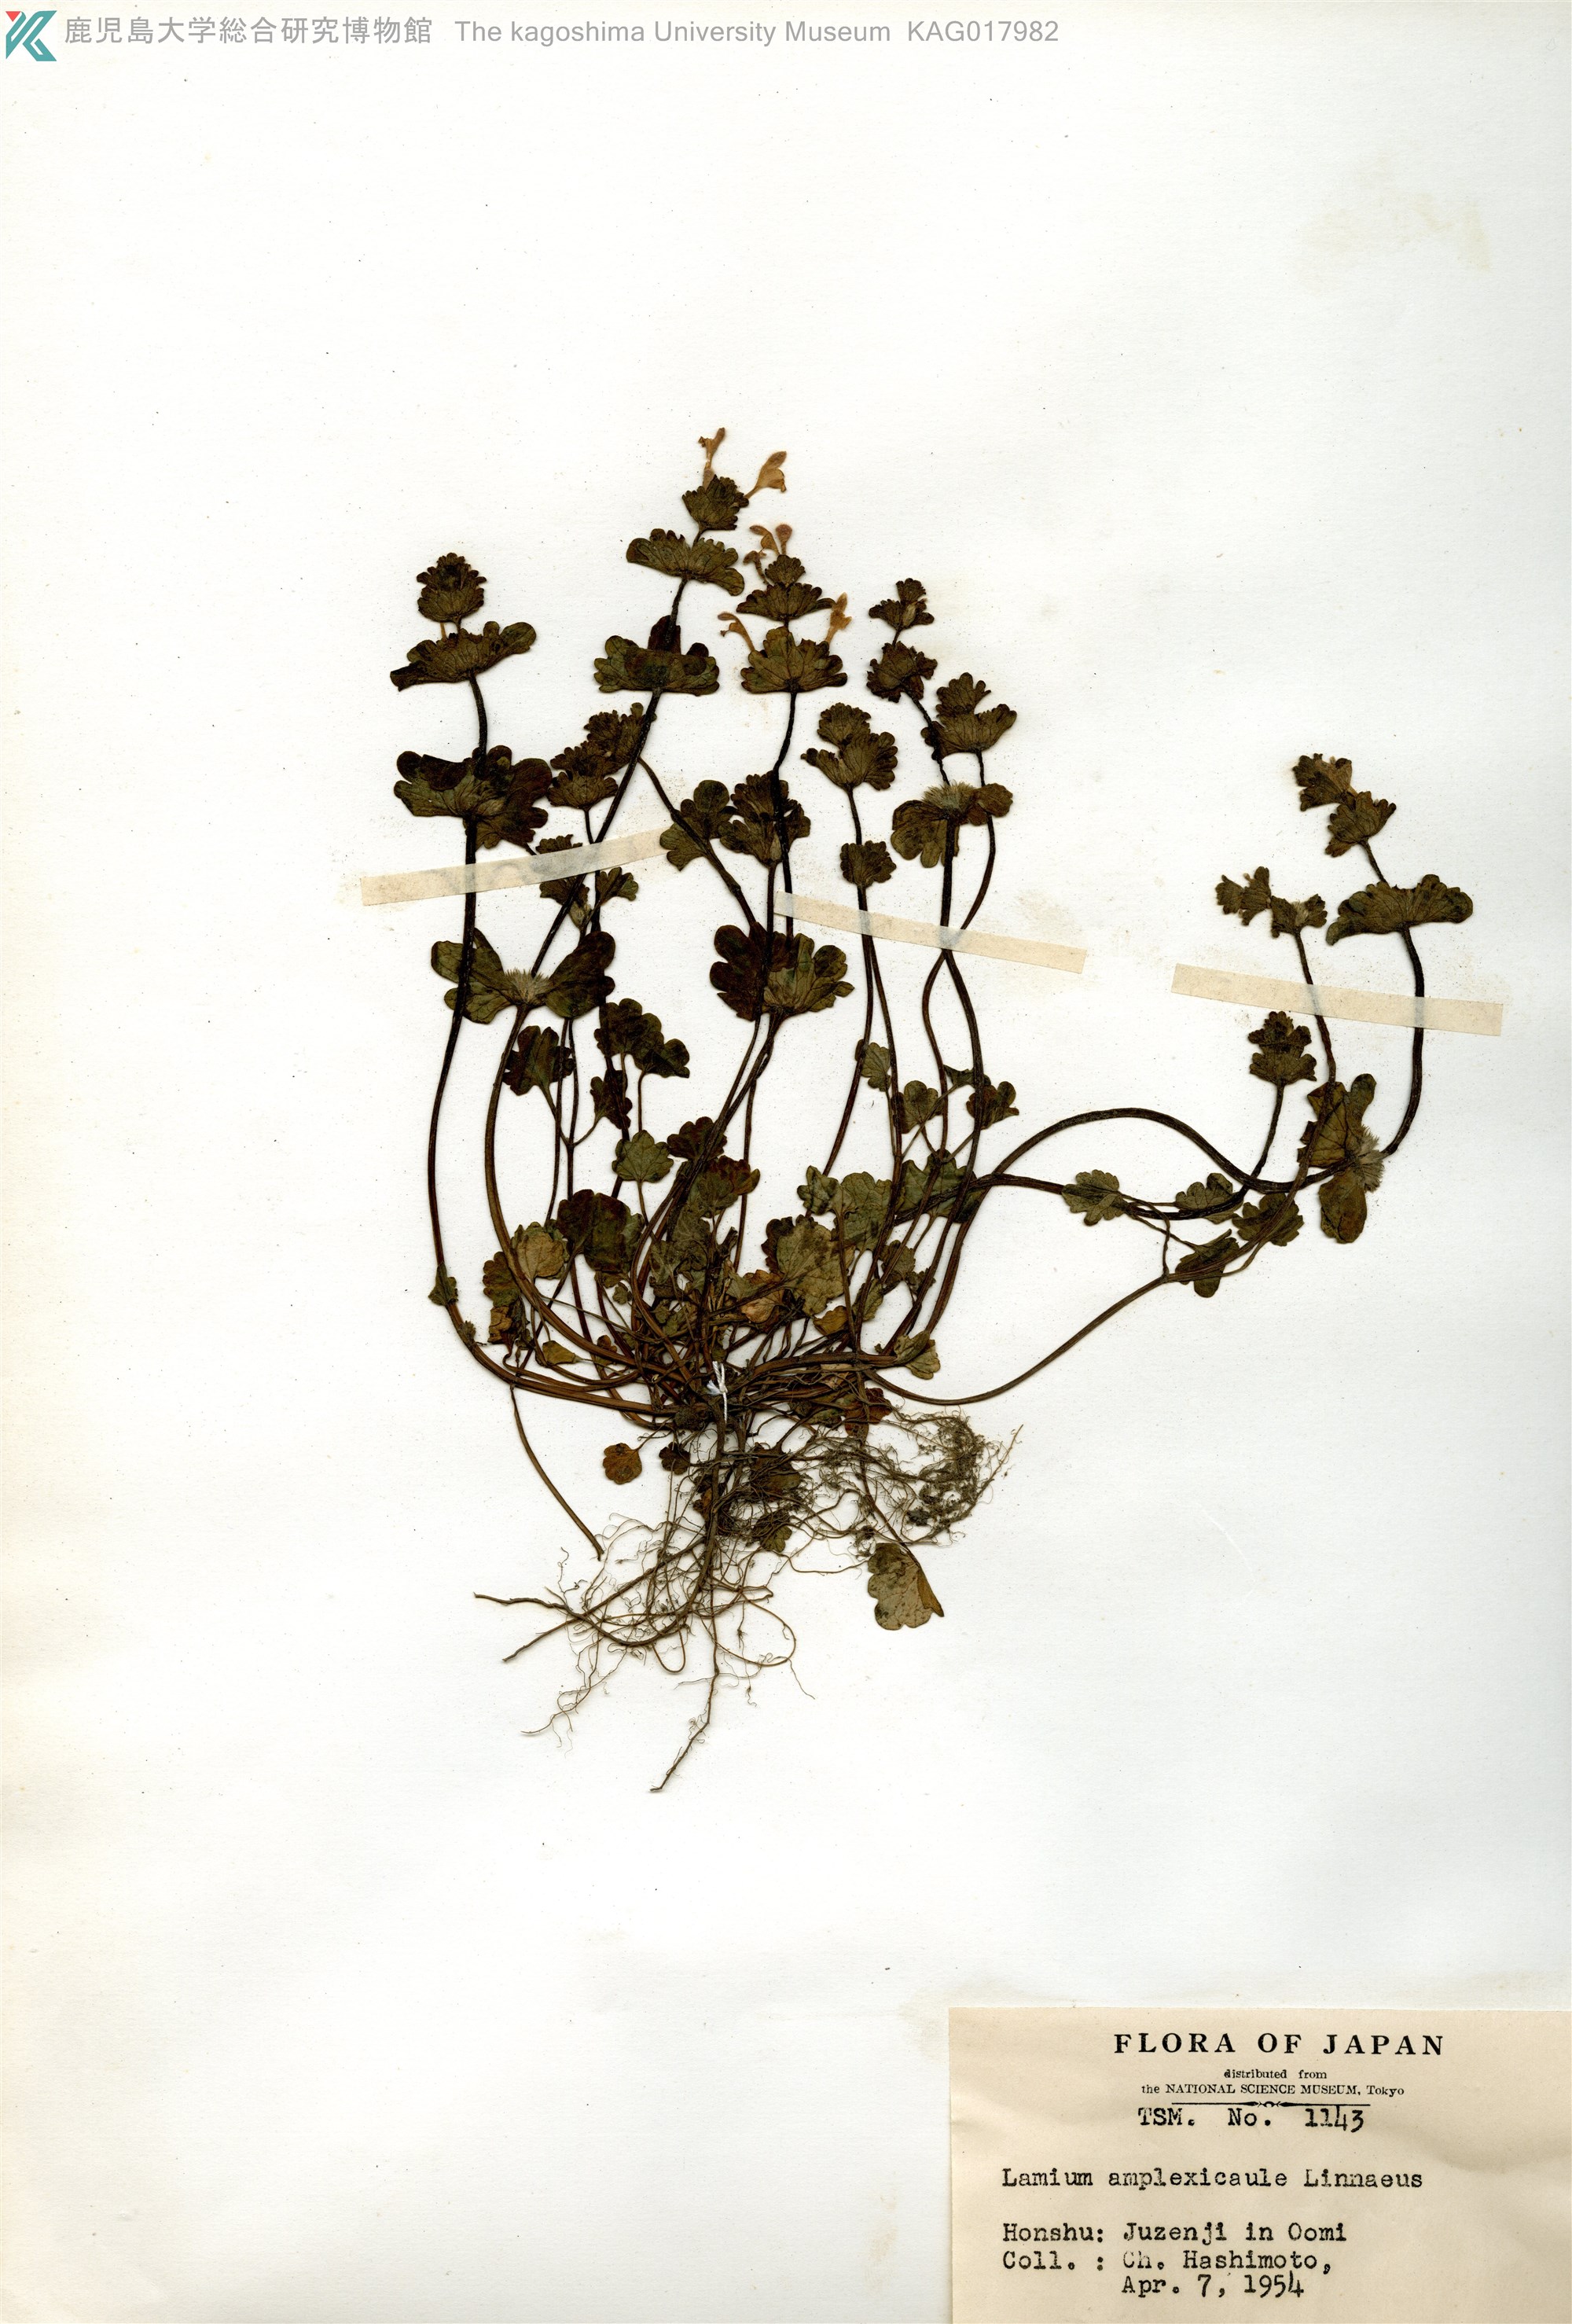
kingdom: Plantae
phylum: Tracheophyta
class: Magnoliopsida
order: Lamiales
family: Lamiaceae
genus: Lamium
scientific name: Lamium amplexicaule
